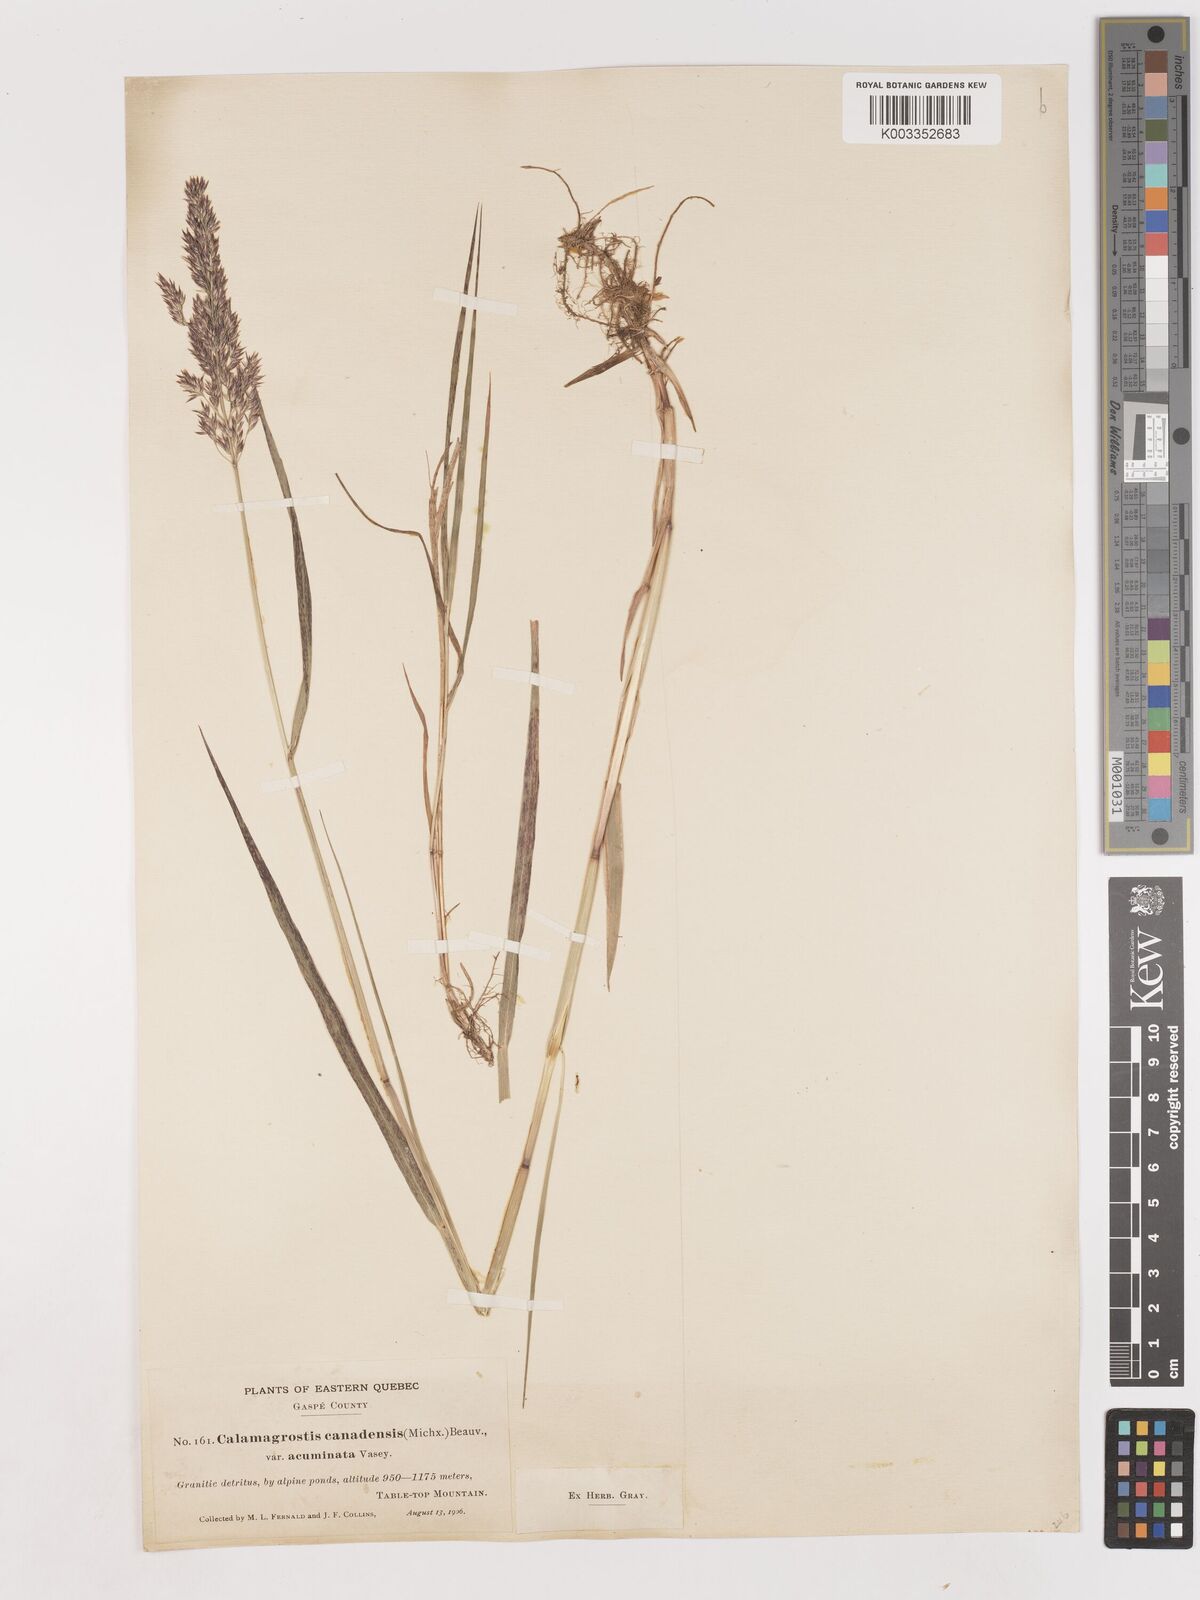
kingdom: Plantae
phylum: Tracheophyta
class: Liliopsida
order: Poales
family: Poaceae
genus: Calamagrostis
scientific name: Calamagrostis canadensis
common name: Canada bluejoint
